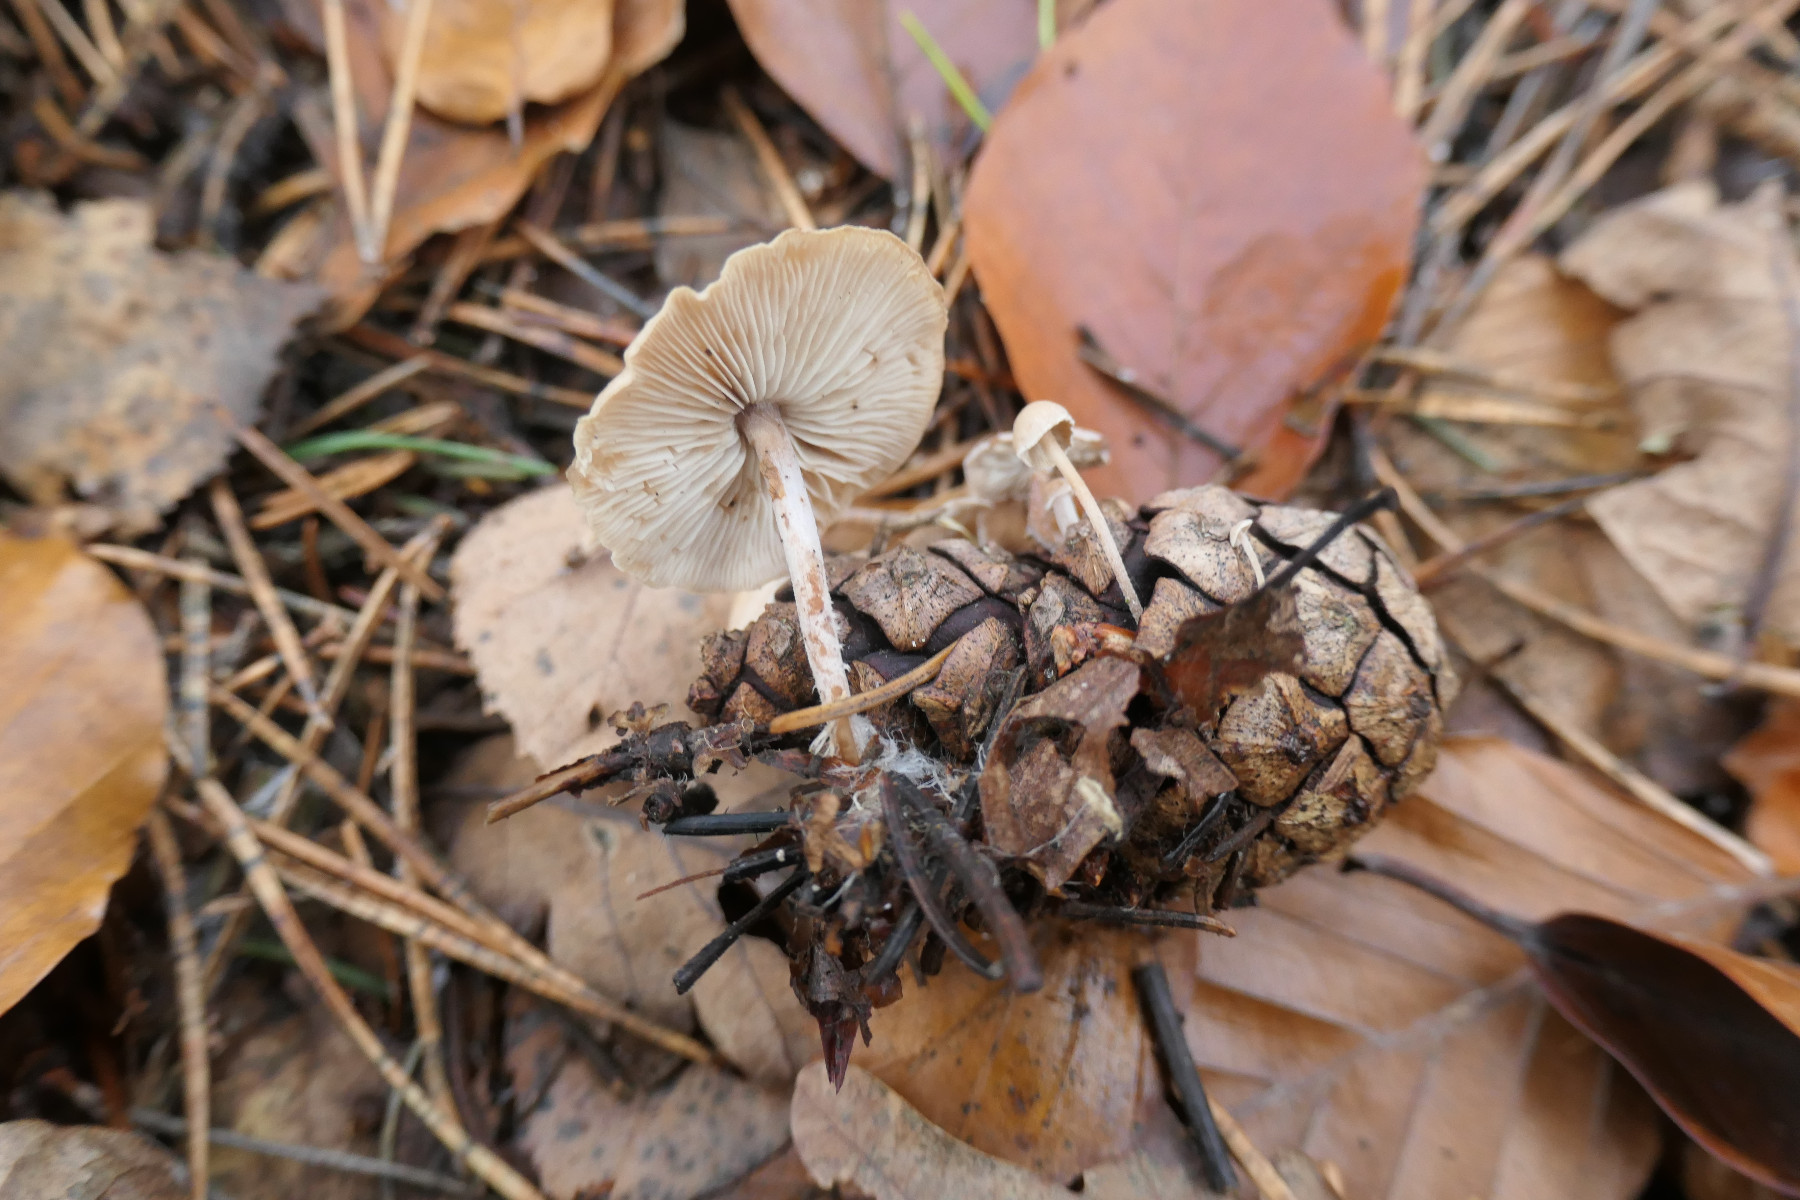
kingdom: Fungi
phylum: Basidiomycota
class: Agaricomycetes
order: Agaricales
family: Marasmiaceae
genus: Baeospora
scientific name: Baeospora myosura
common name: koglebruskhat
